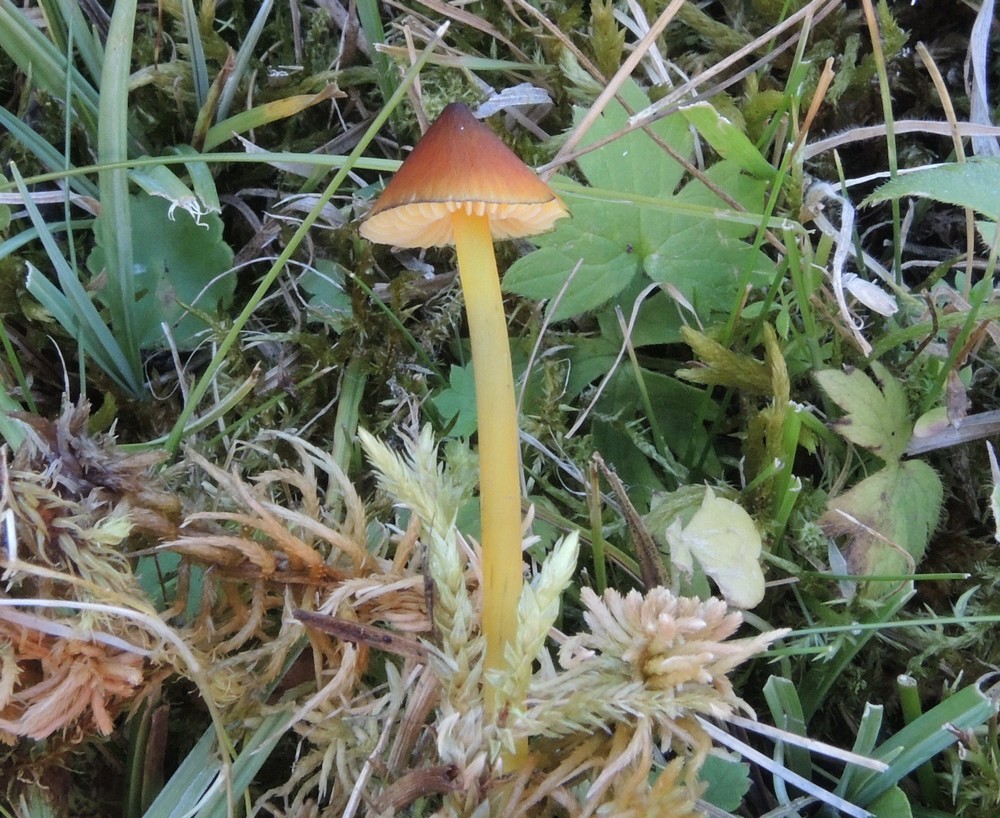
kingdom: Fungi
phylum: Basidiomycota
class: Agaricomycetes
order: Agaricales
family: Hygrophoraceae
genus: Hygrocybe
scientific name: Hygrocybe conica
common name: kegle-vokshat
